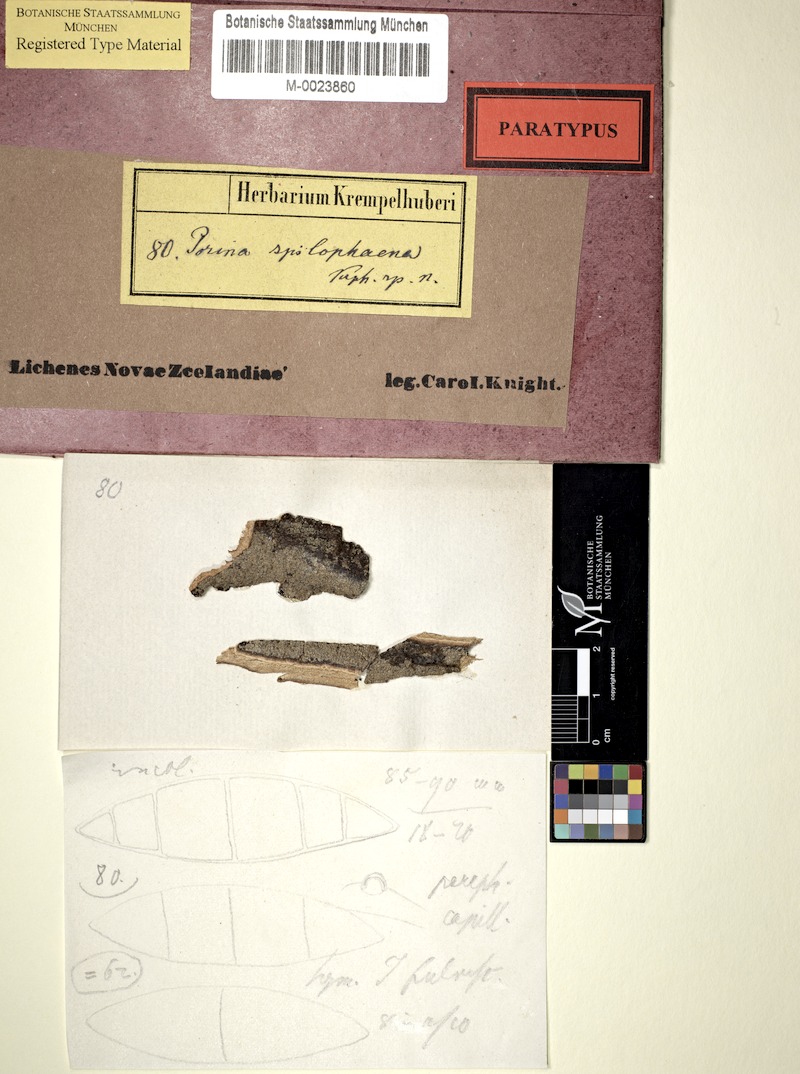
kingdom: Fungi
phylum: Ascomycota
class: Lecanoromycetes
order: Pertusariales
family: Pertusariaceae
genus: Segestria
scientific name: Segestria
